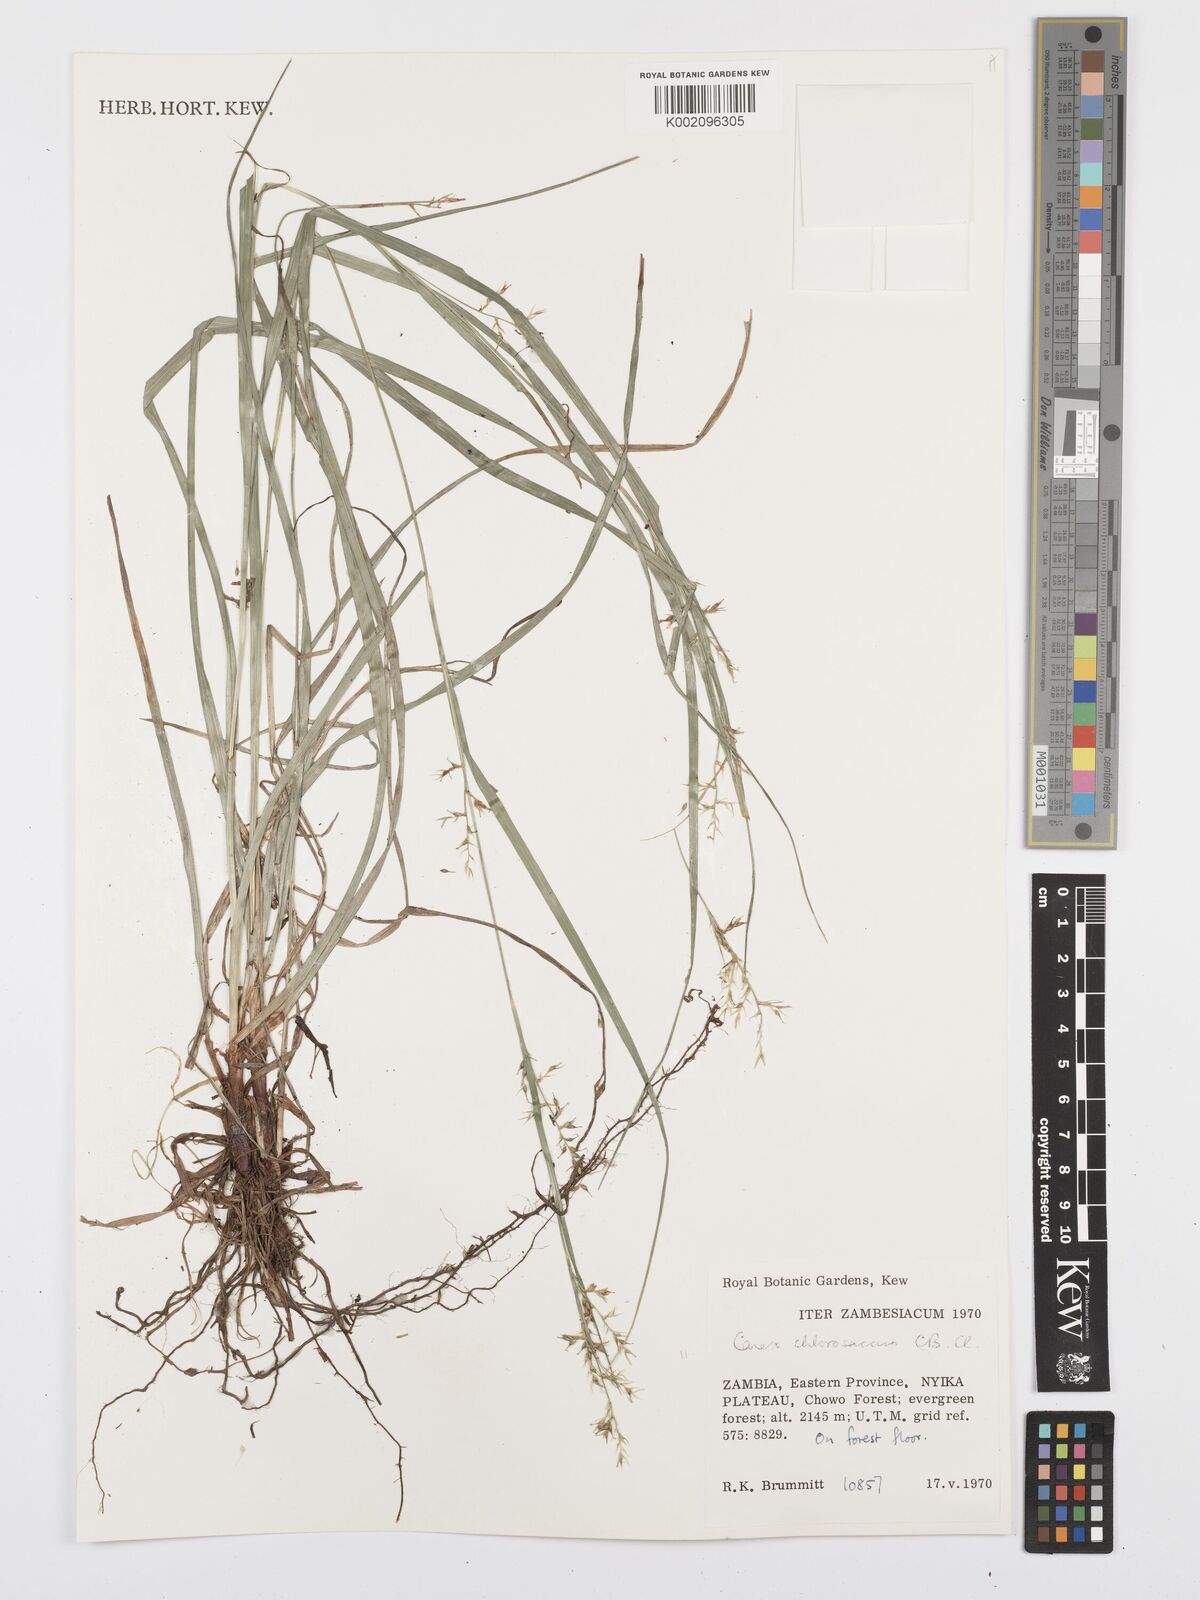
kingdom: Plantae
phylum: Tracheophyta
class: Liliopsida
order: Poales
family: Cyperaceae
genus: Carex
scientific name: Carex chlorosaccus
